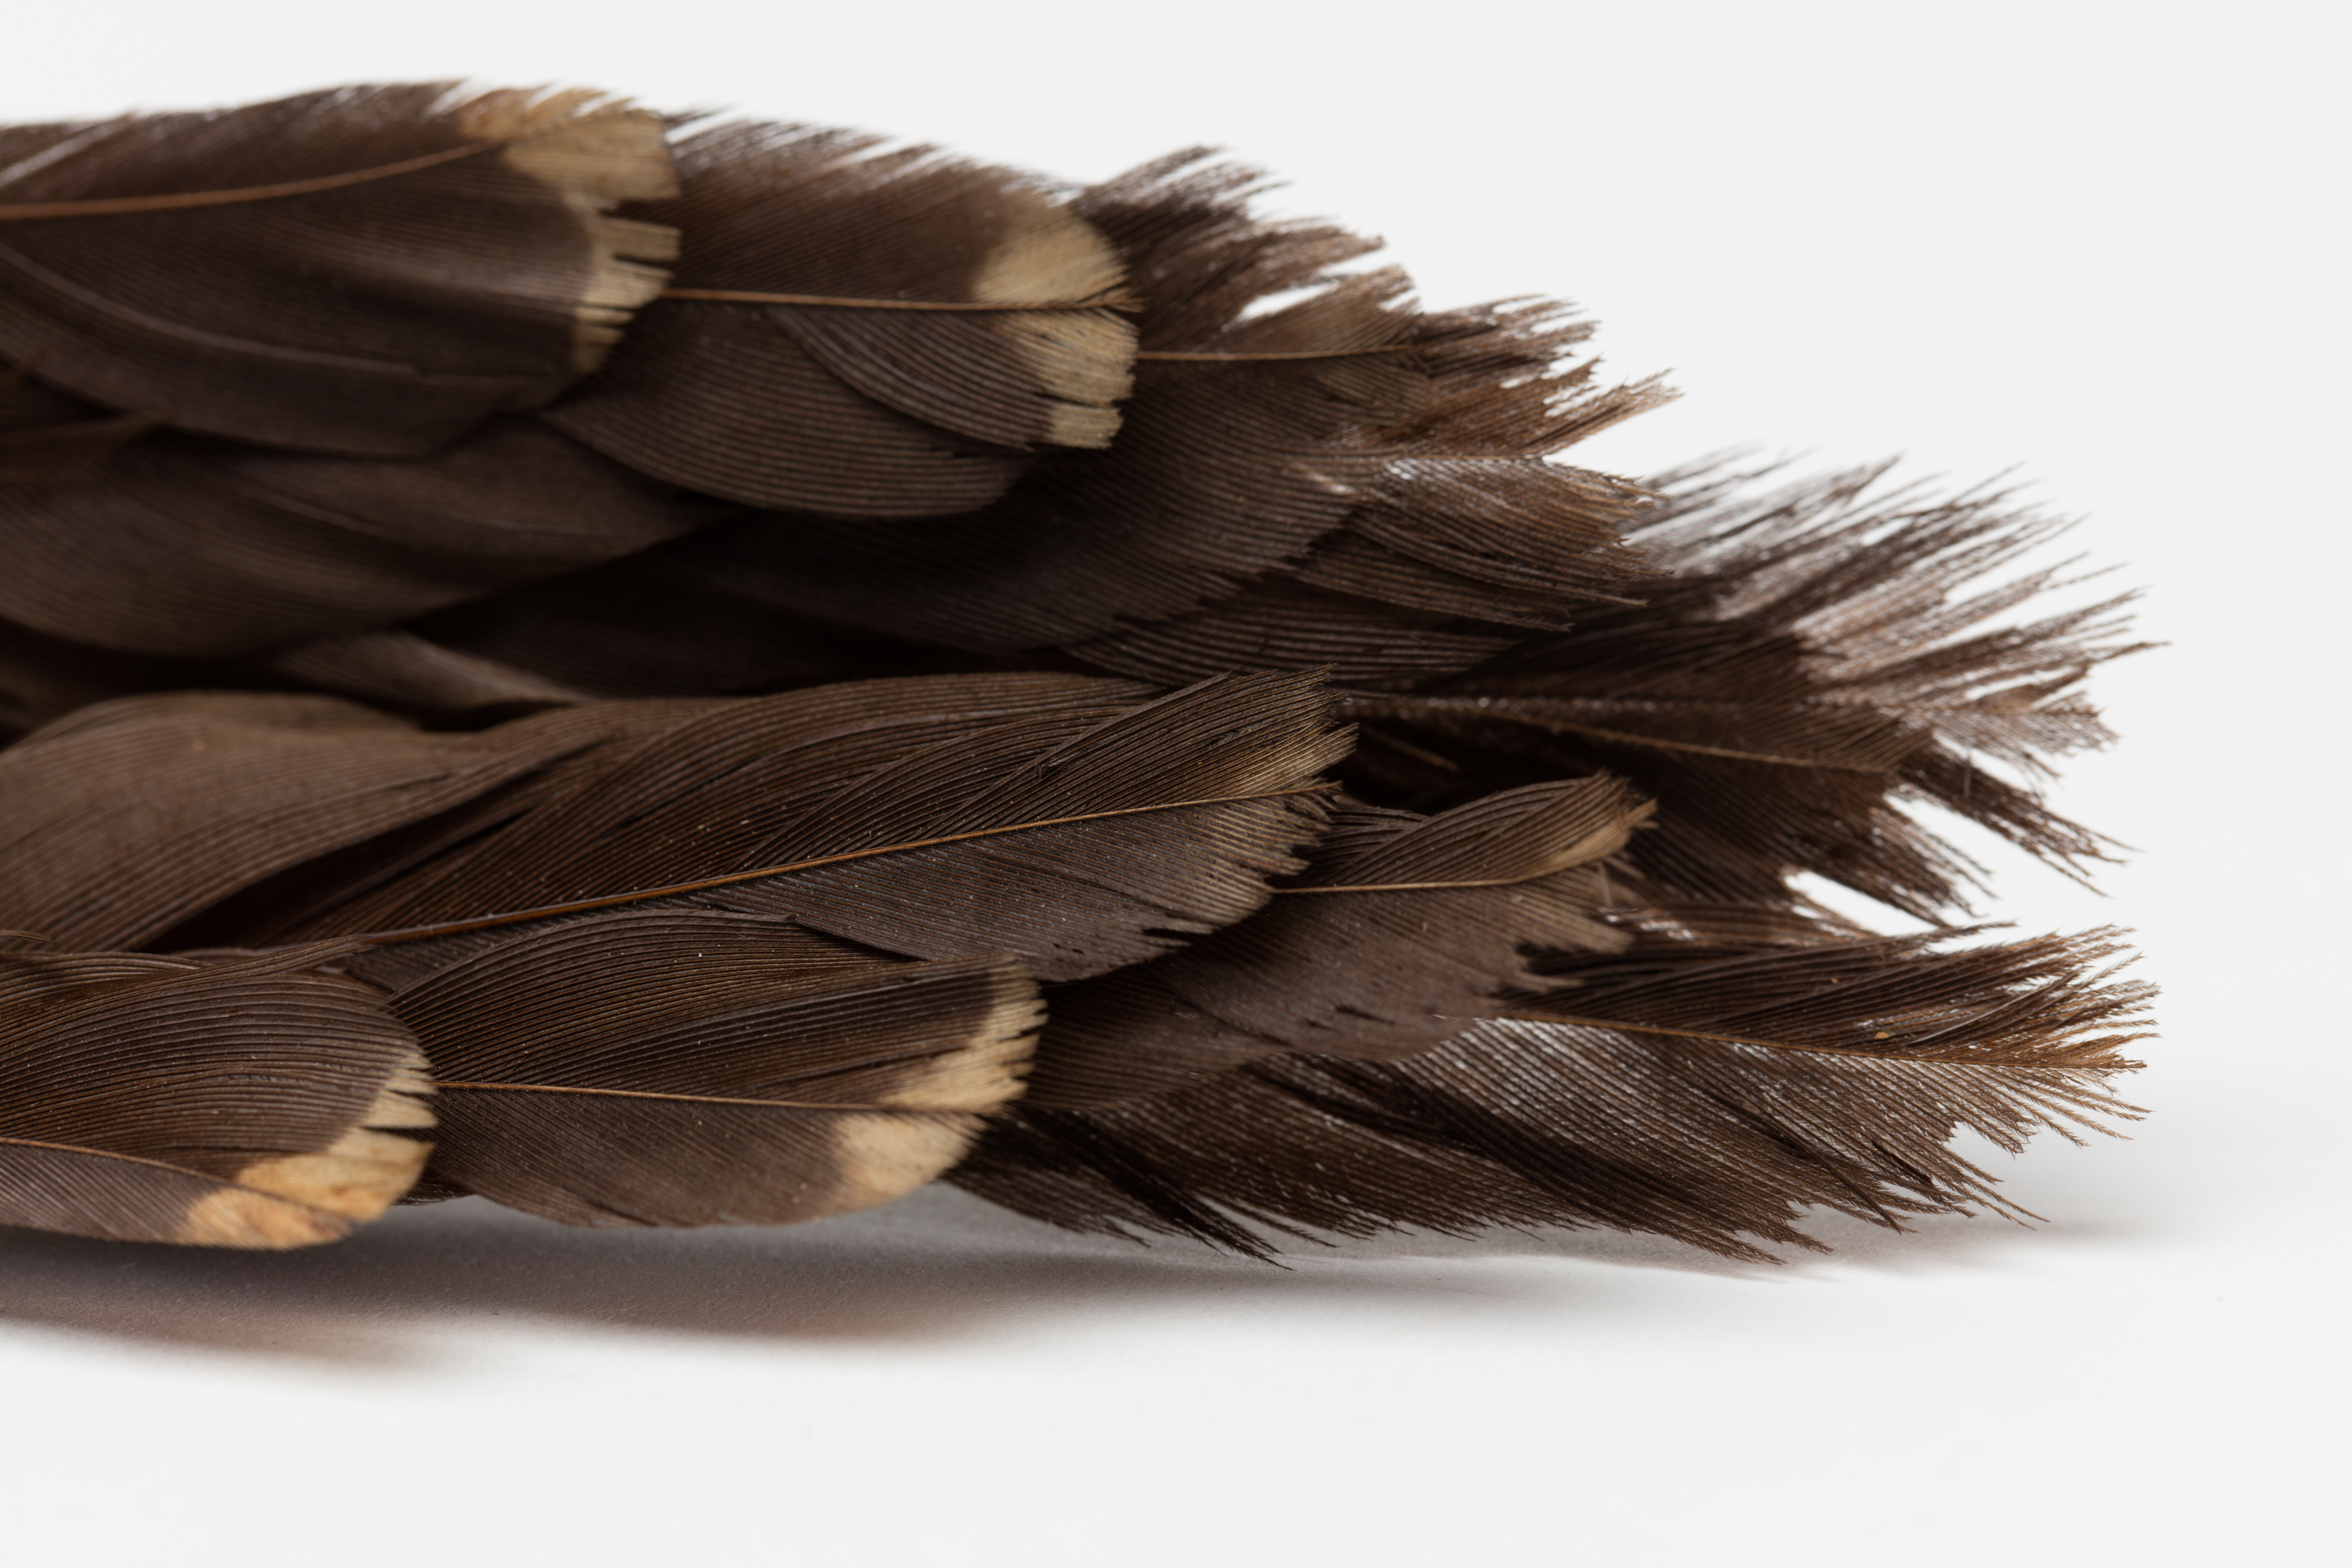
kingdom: Animalia
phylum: Chordata
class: Aves
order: Passeriformes
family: Psophodidae
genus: Psophodes
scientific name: Psophodes olivaceus
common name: Eastern whipbird
